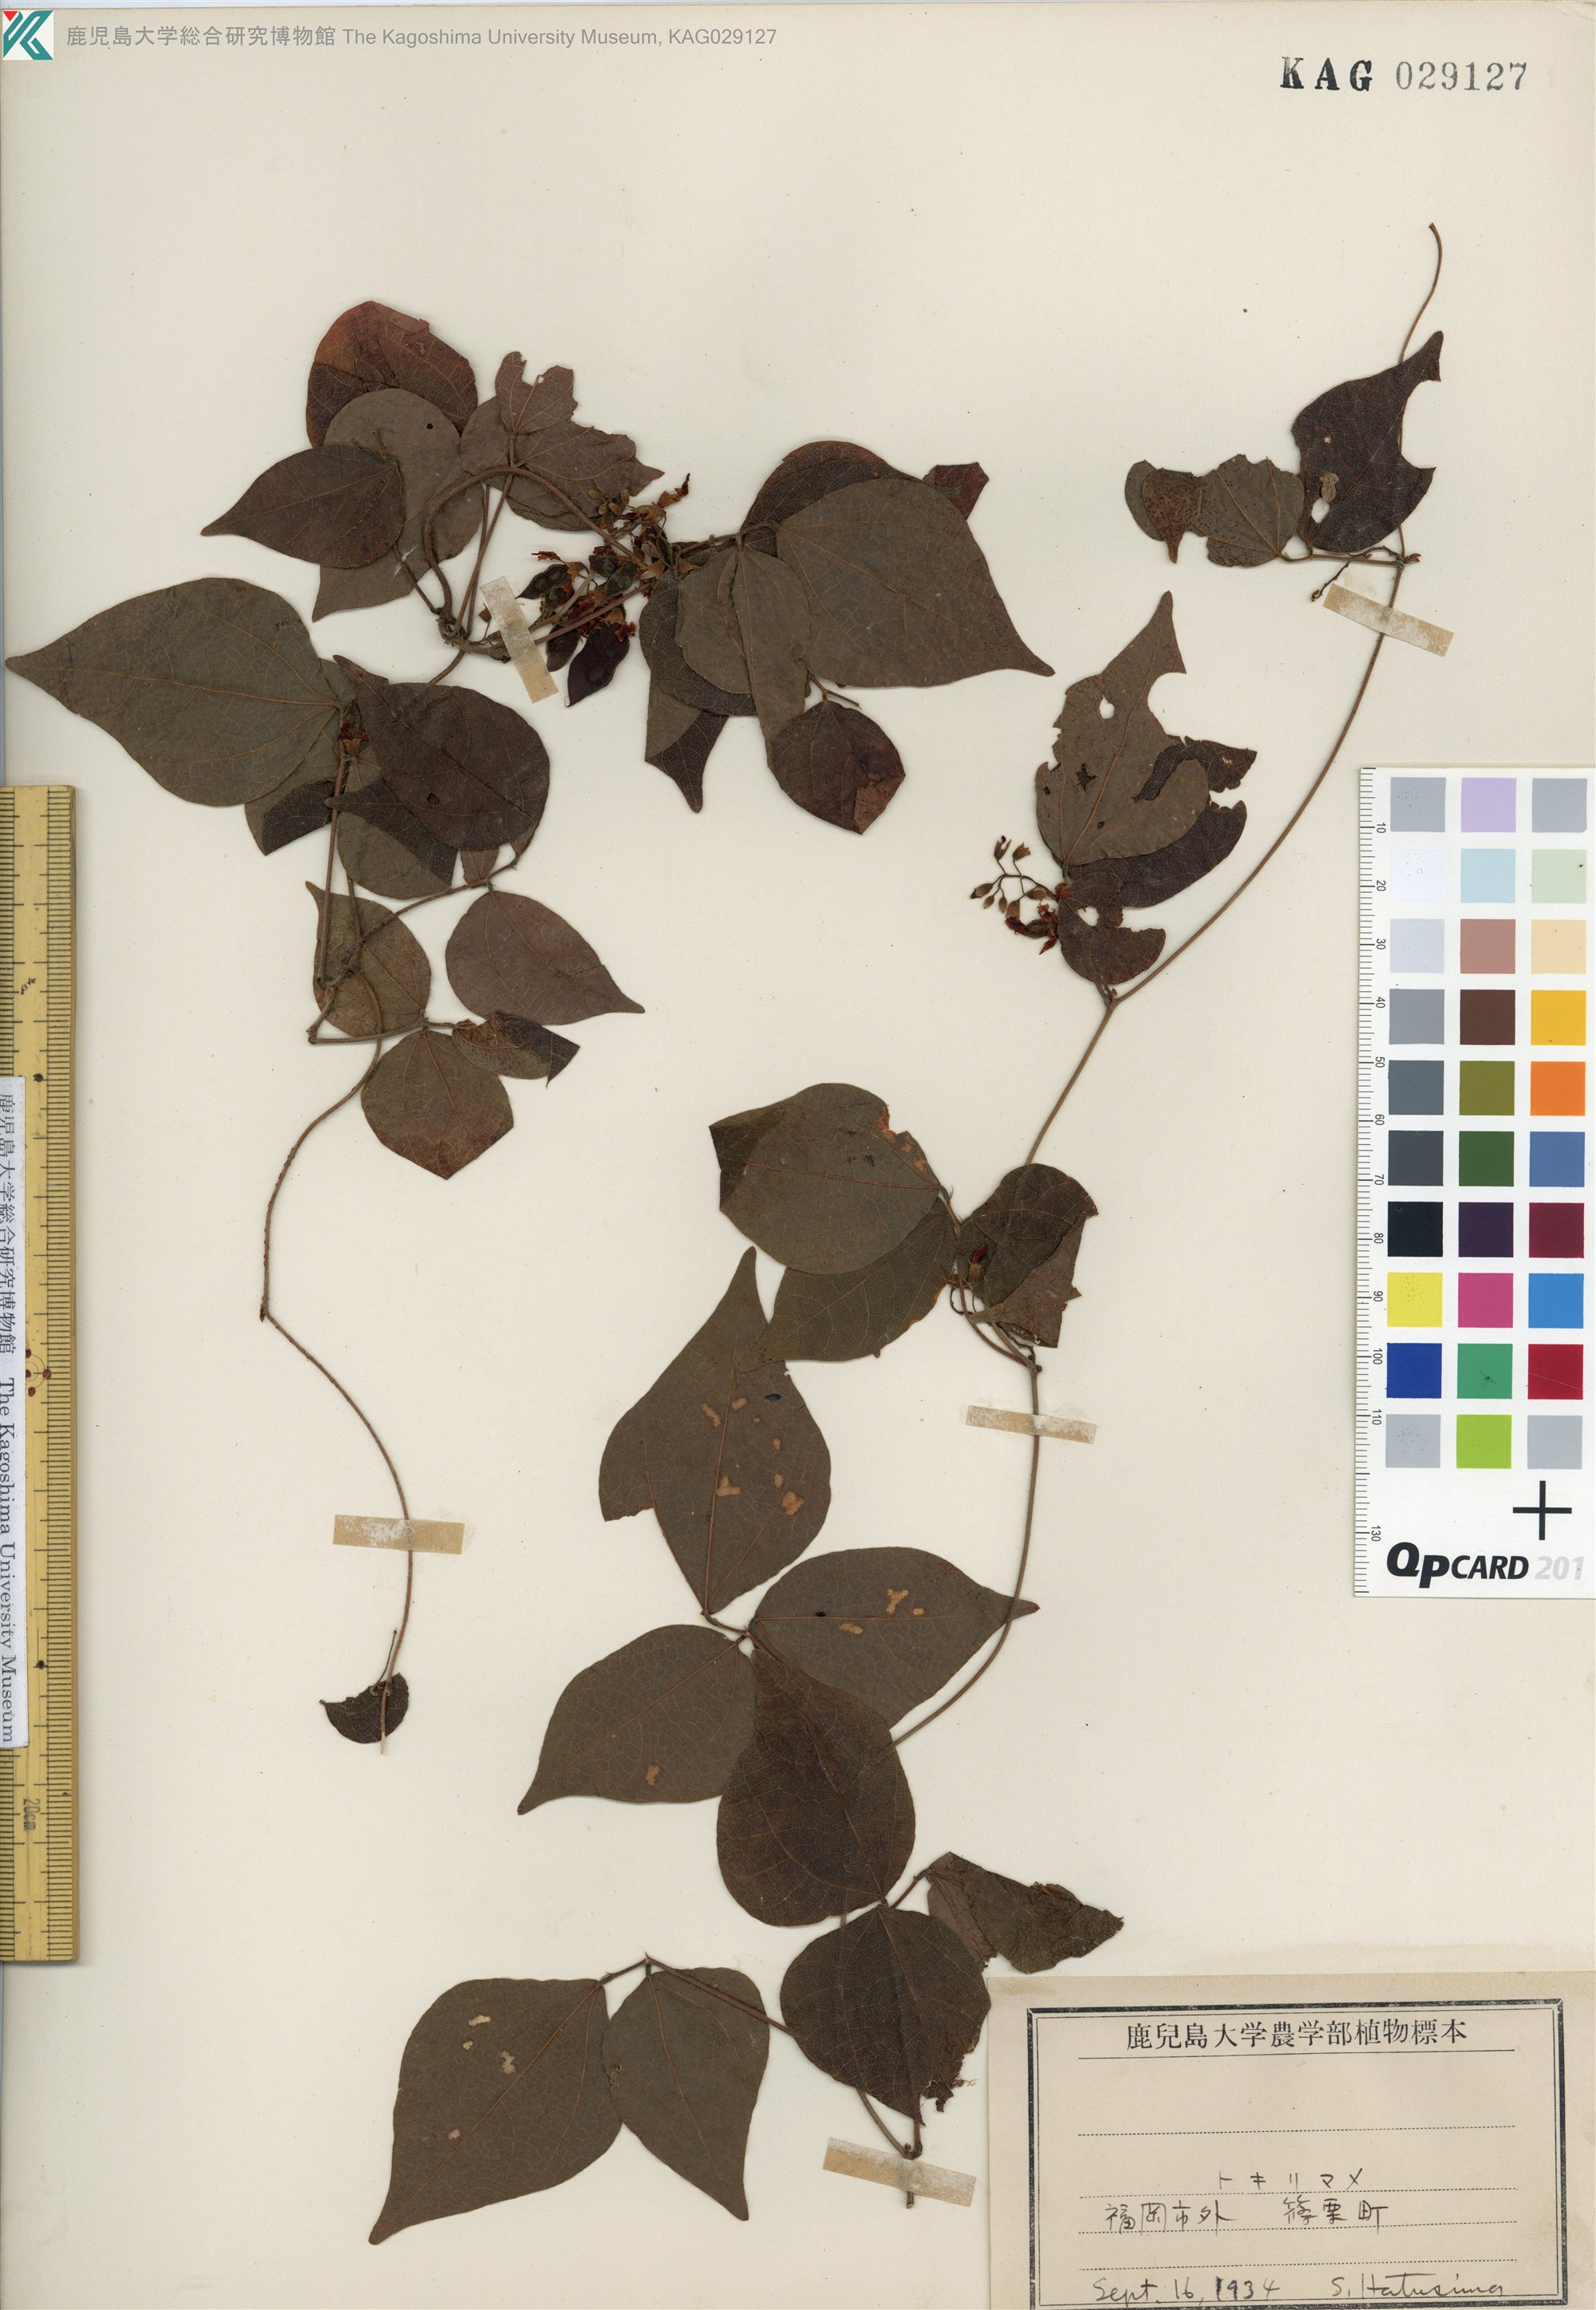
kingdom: Plantae
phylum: Tracheophyta
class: Magnoliopsida
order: Fabales
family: Fabaceae
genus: Rhynchosia
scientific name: Rhynchosia acuminatifolia
